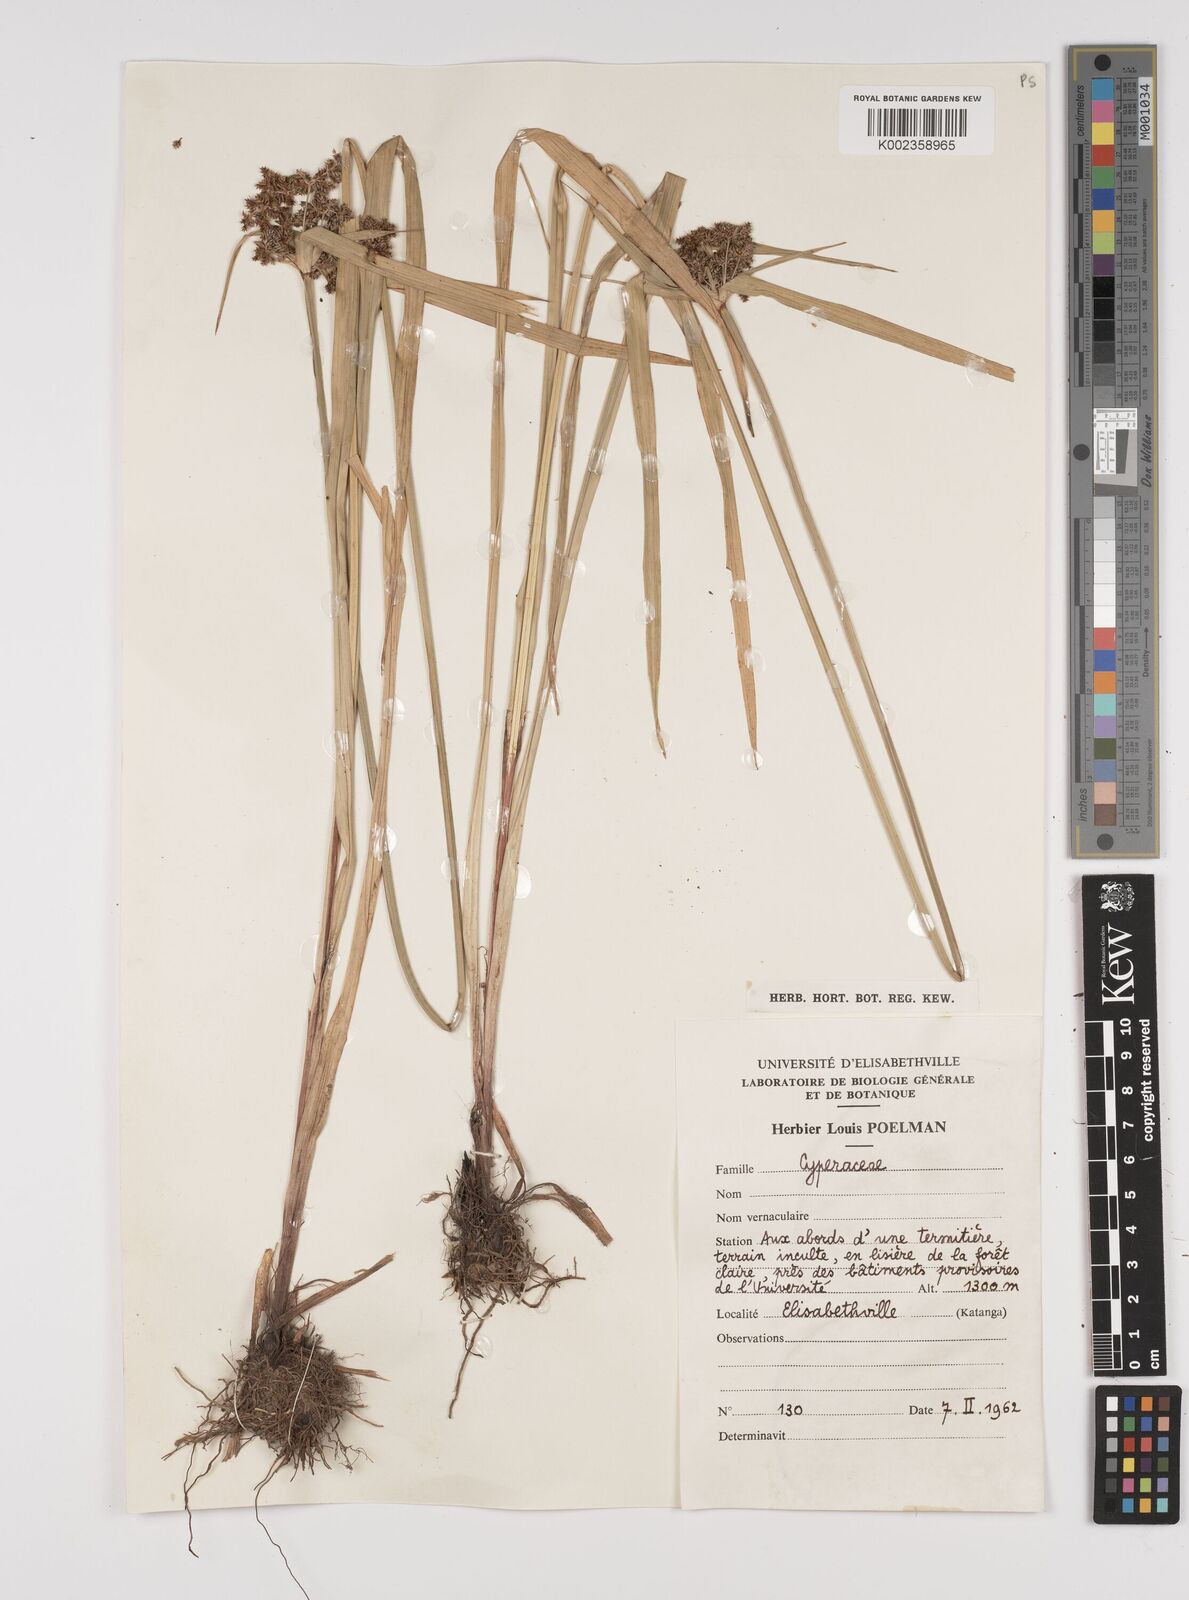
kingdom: Plantae
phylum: Tracheophyta
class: Liliopsida
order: Poales
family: Cyperaceae
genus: Cyperus
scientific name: Cyperus diffusus
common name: Dwarf umbrella grass
